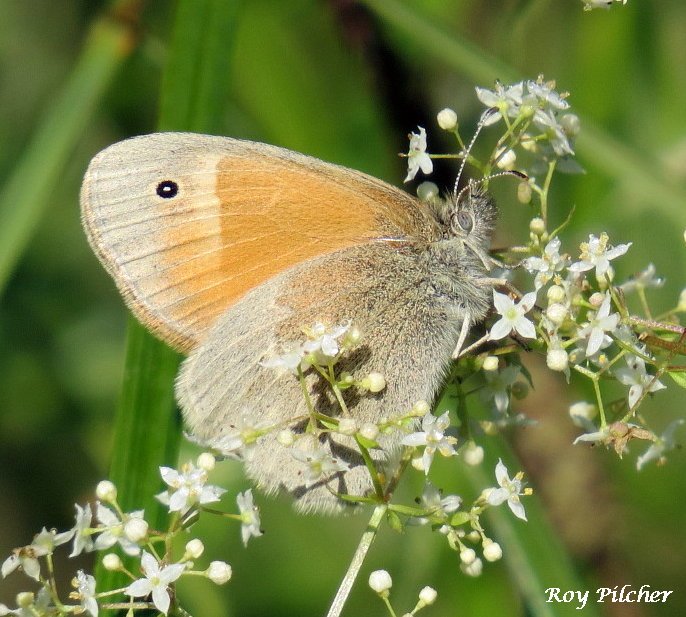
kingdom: Animalia
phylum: Arthropoda
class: Insecta
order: Lepidoptera
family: Nymphalidae
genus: Coenonympha
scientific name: Coenonympha tullia
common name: Large Heath
